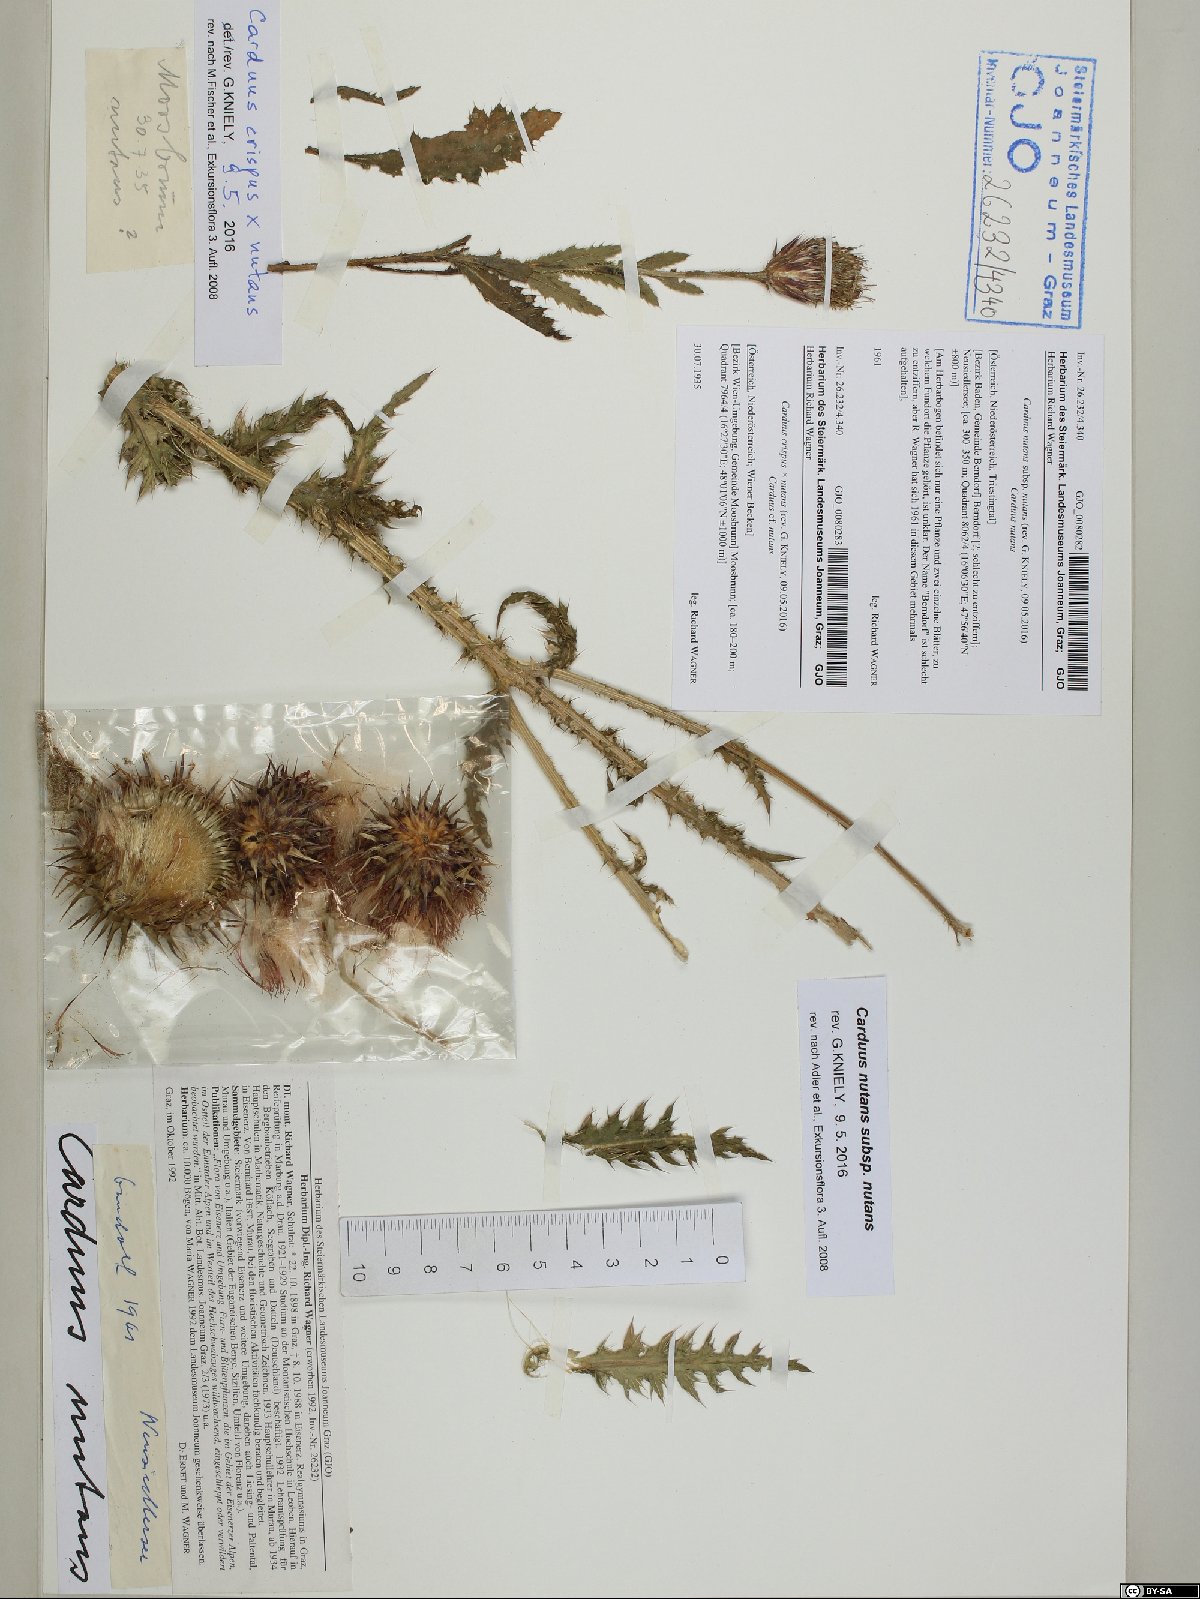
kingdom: Plantae
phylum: Tracheophyta
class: Magnoliopsida
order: Asterales
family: Asteraceae
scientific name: Asteraceae
